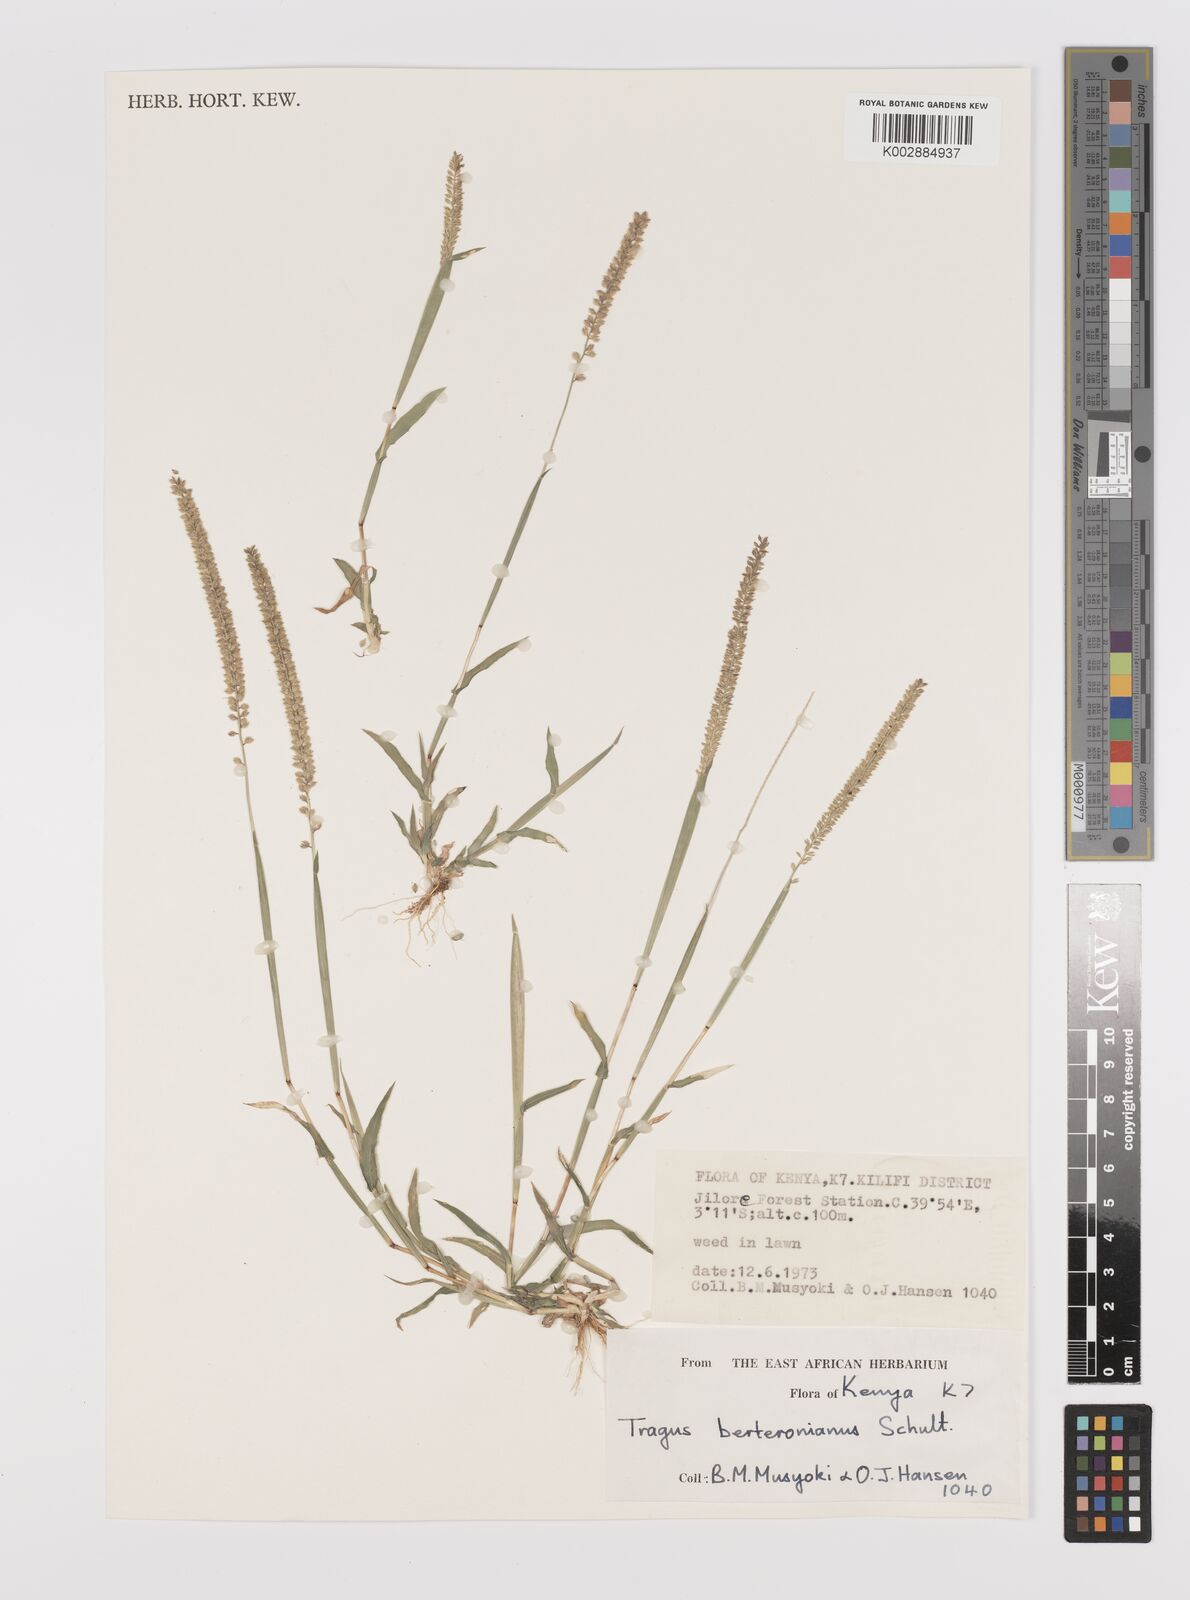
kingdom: Plantae
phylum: Tracheophyta
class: Liliopsida
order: Poales
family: Poaceae
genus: Tragus
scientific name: Tragus berteronianus
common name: African bur-grass
